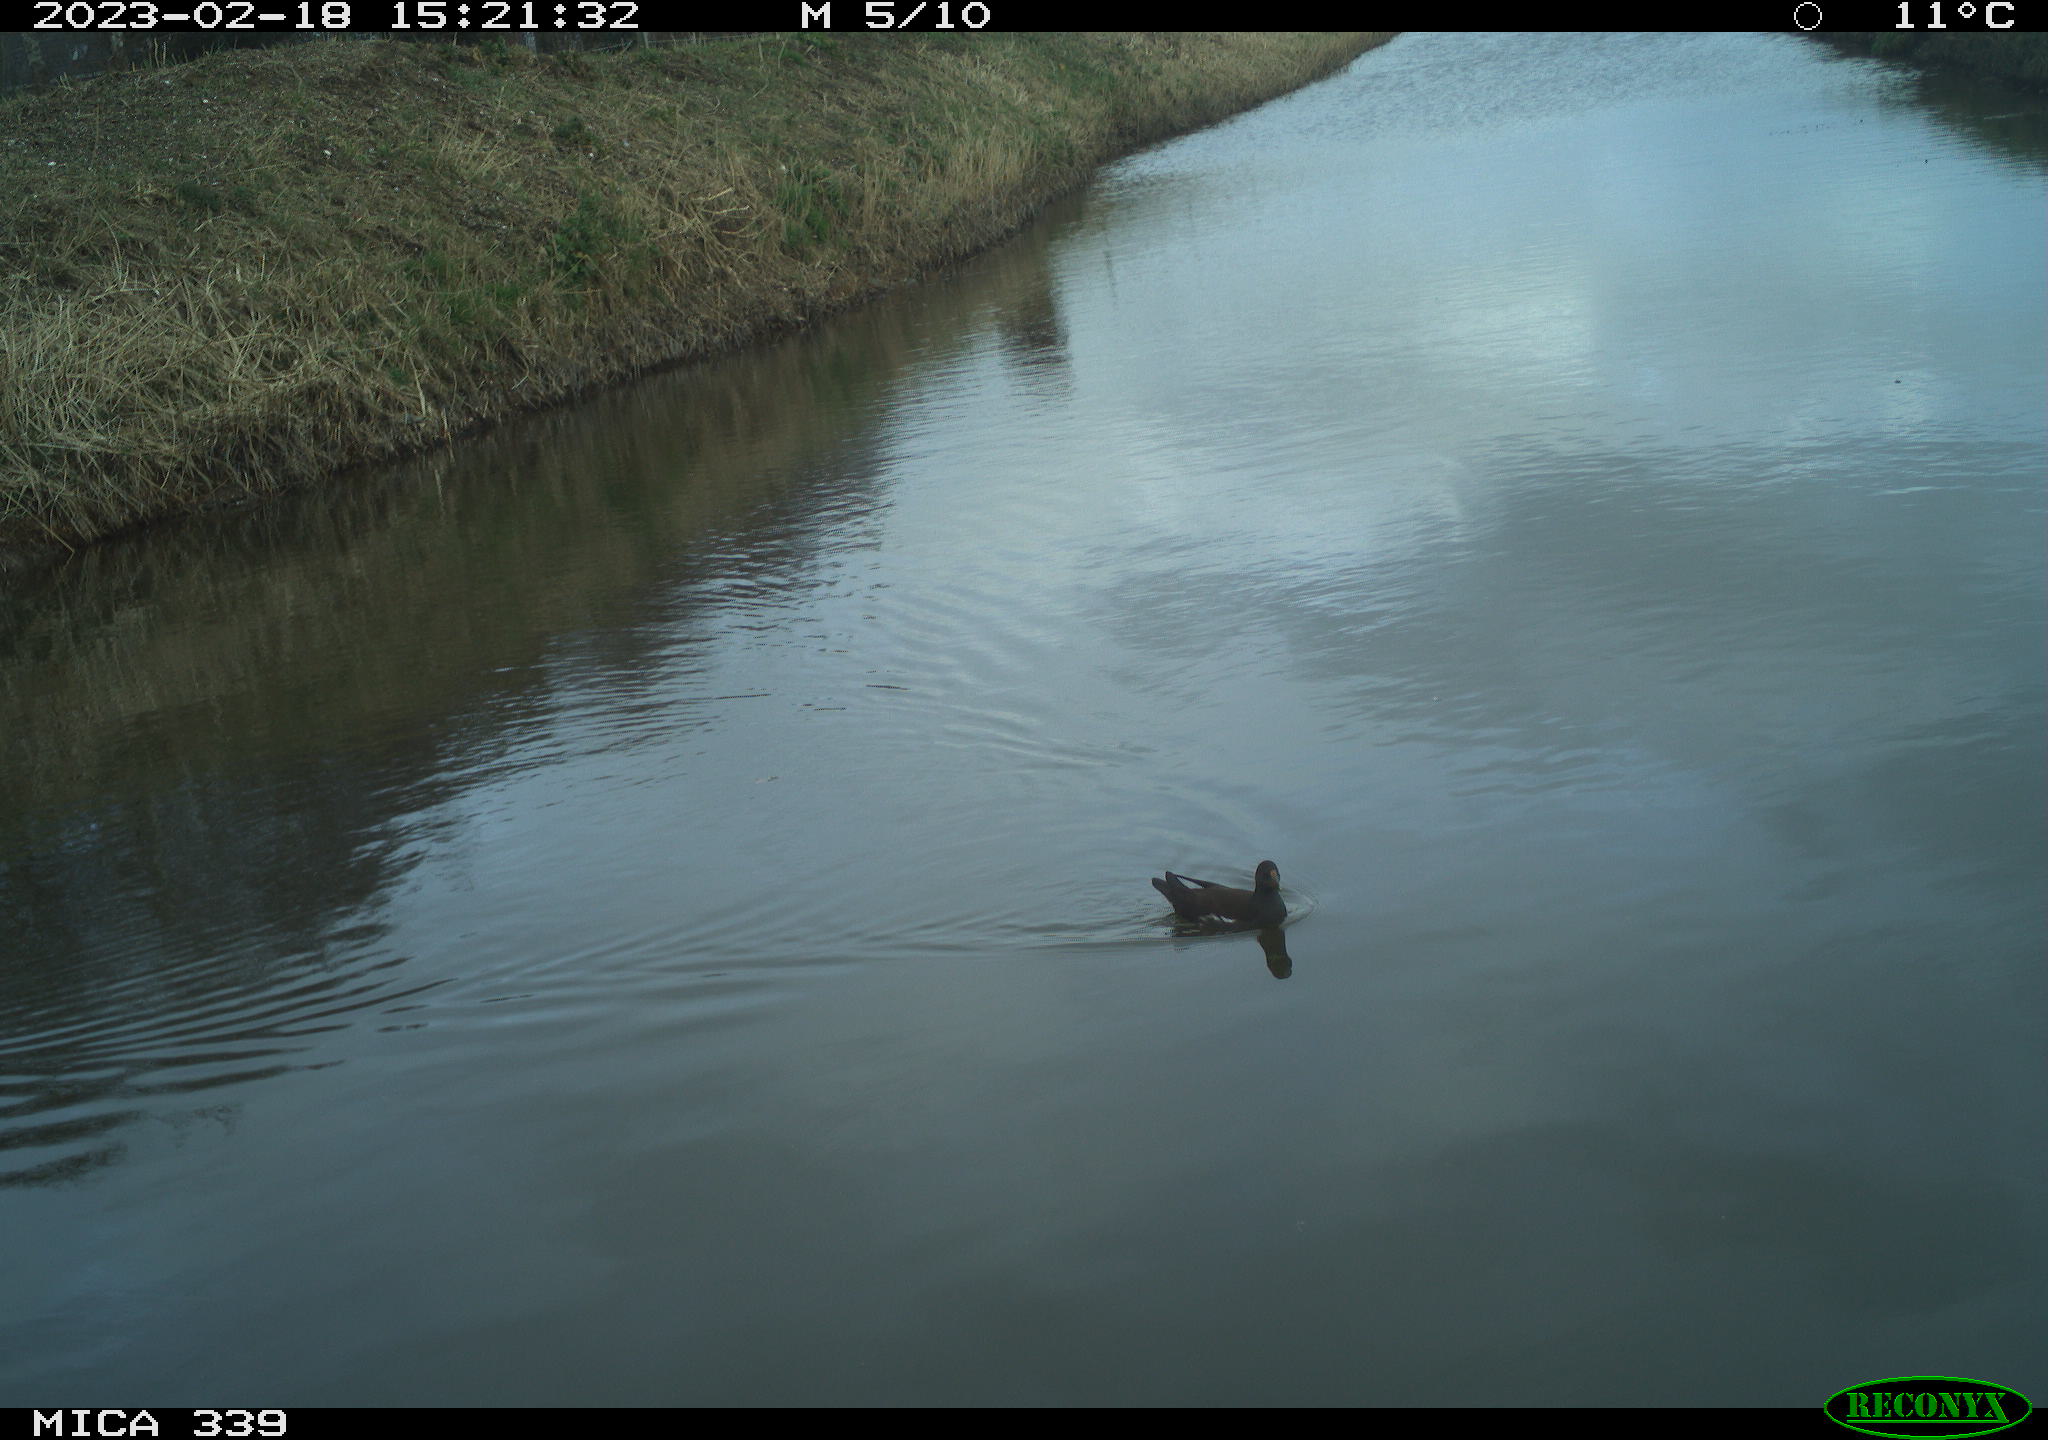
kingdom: Animalia
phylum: Chordata
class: Aves
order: Gruiformes
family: Rallidae
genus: Gallinula
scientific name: Gallinula chloropus
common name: Common moorhen
